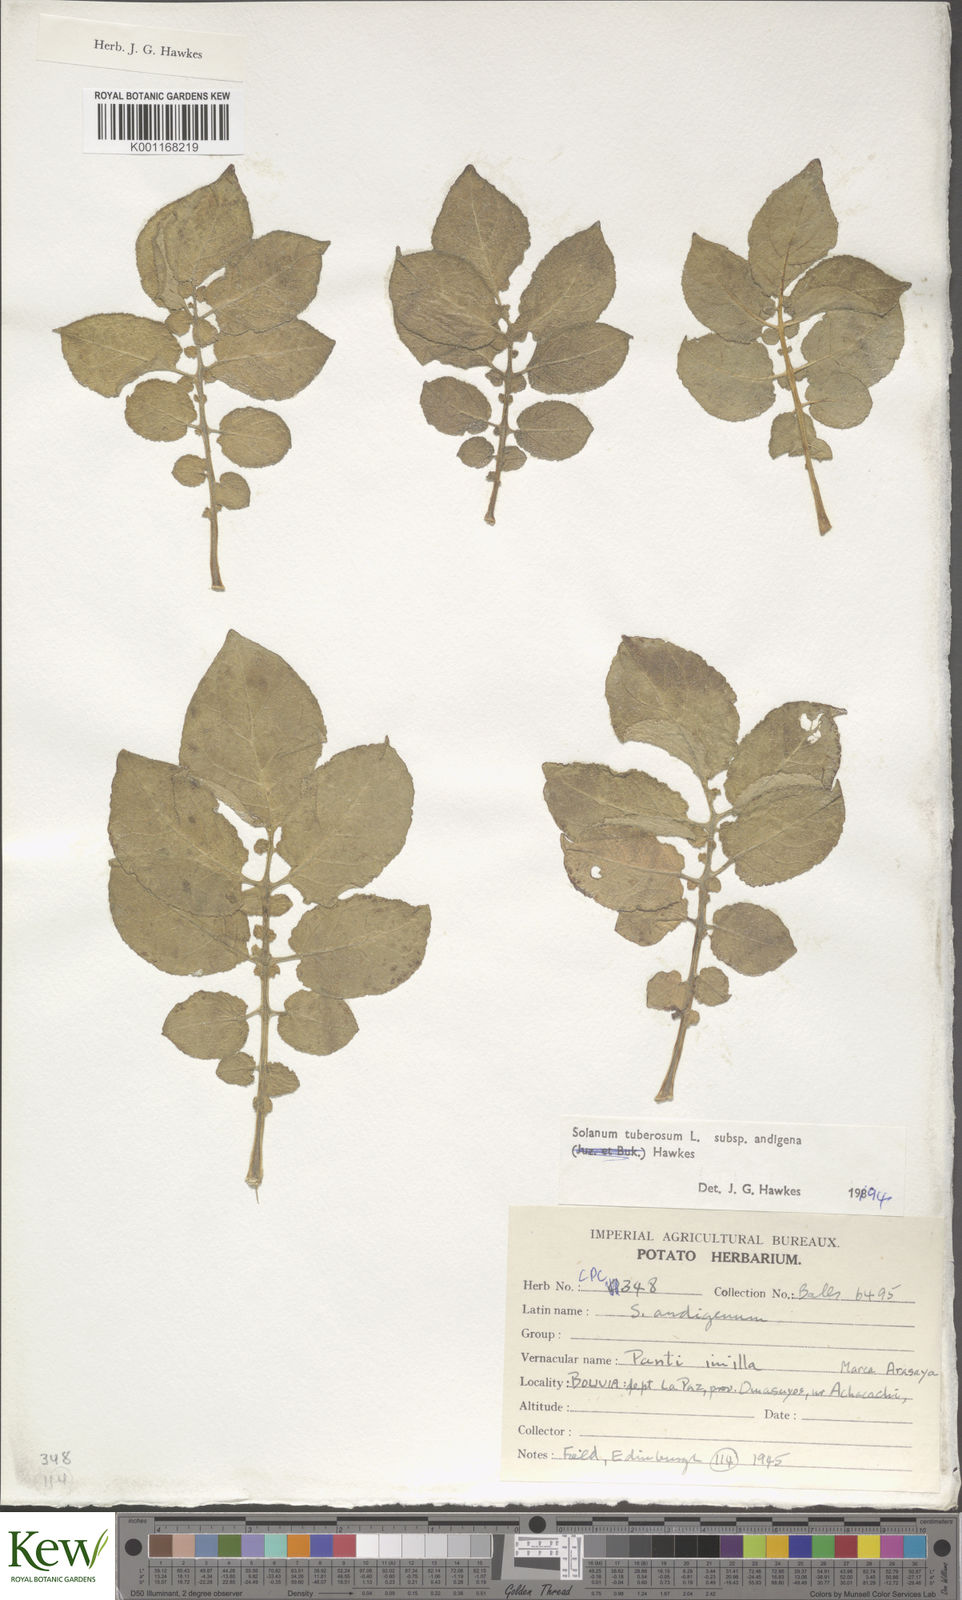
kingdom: Plantae
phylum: Tracheophyta
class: Magnoliopsida
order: Solanales
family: Solanaceae
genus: Solanum
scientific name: Solanum tuberosum
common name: Potato
